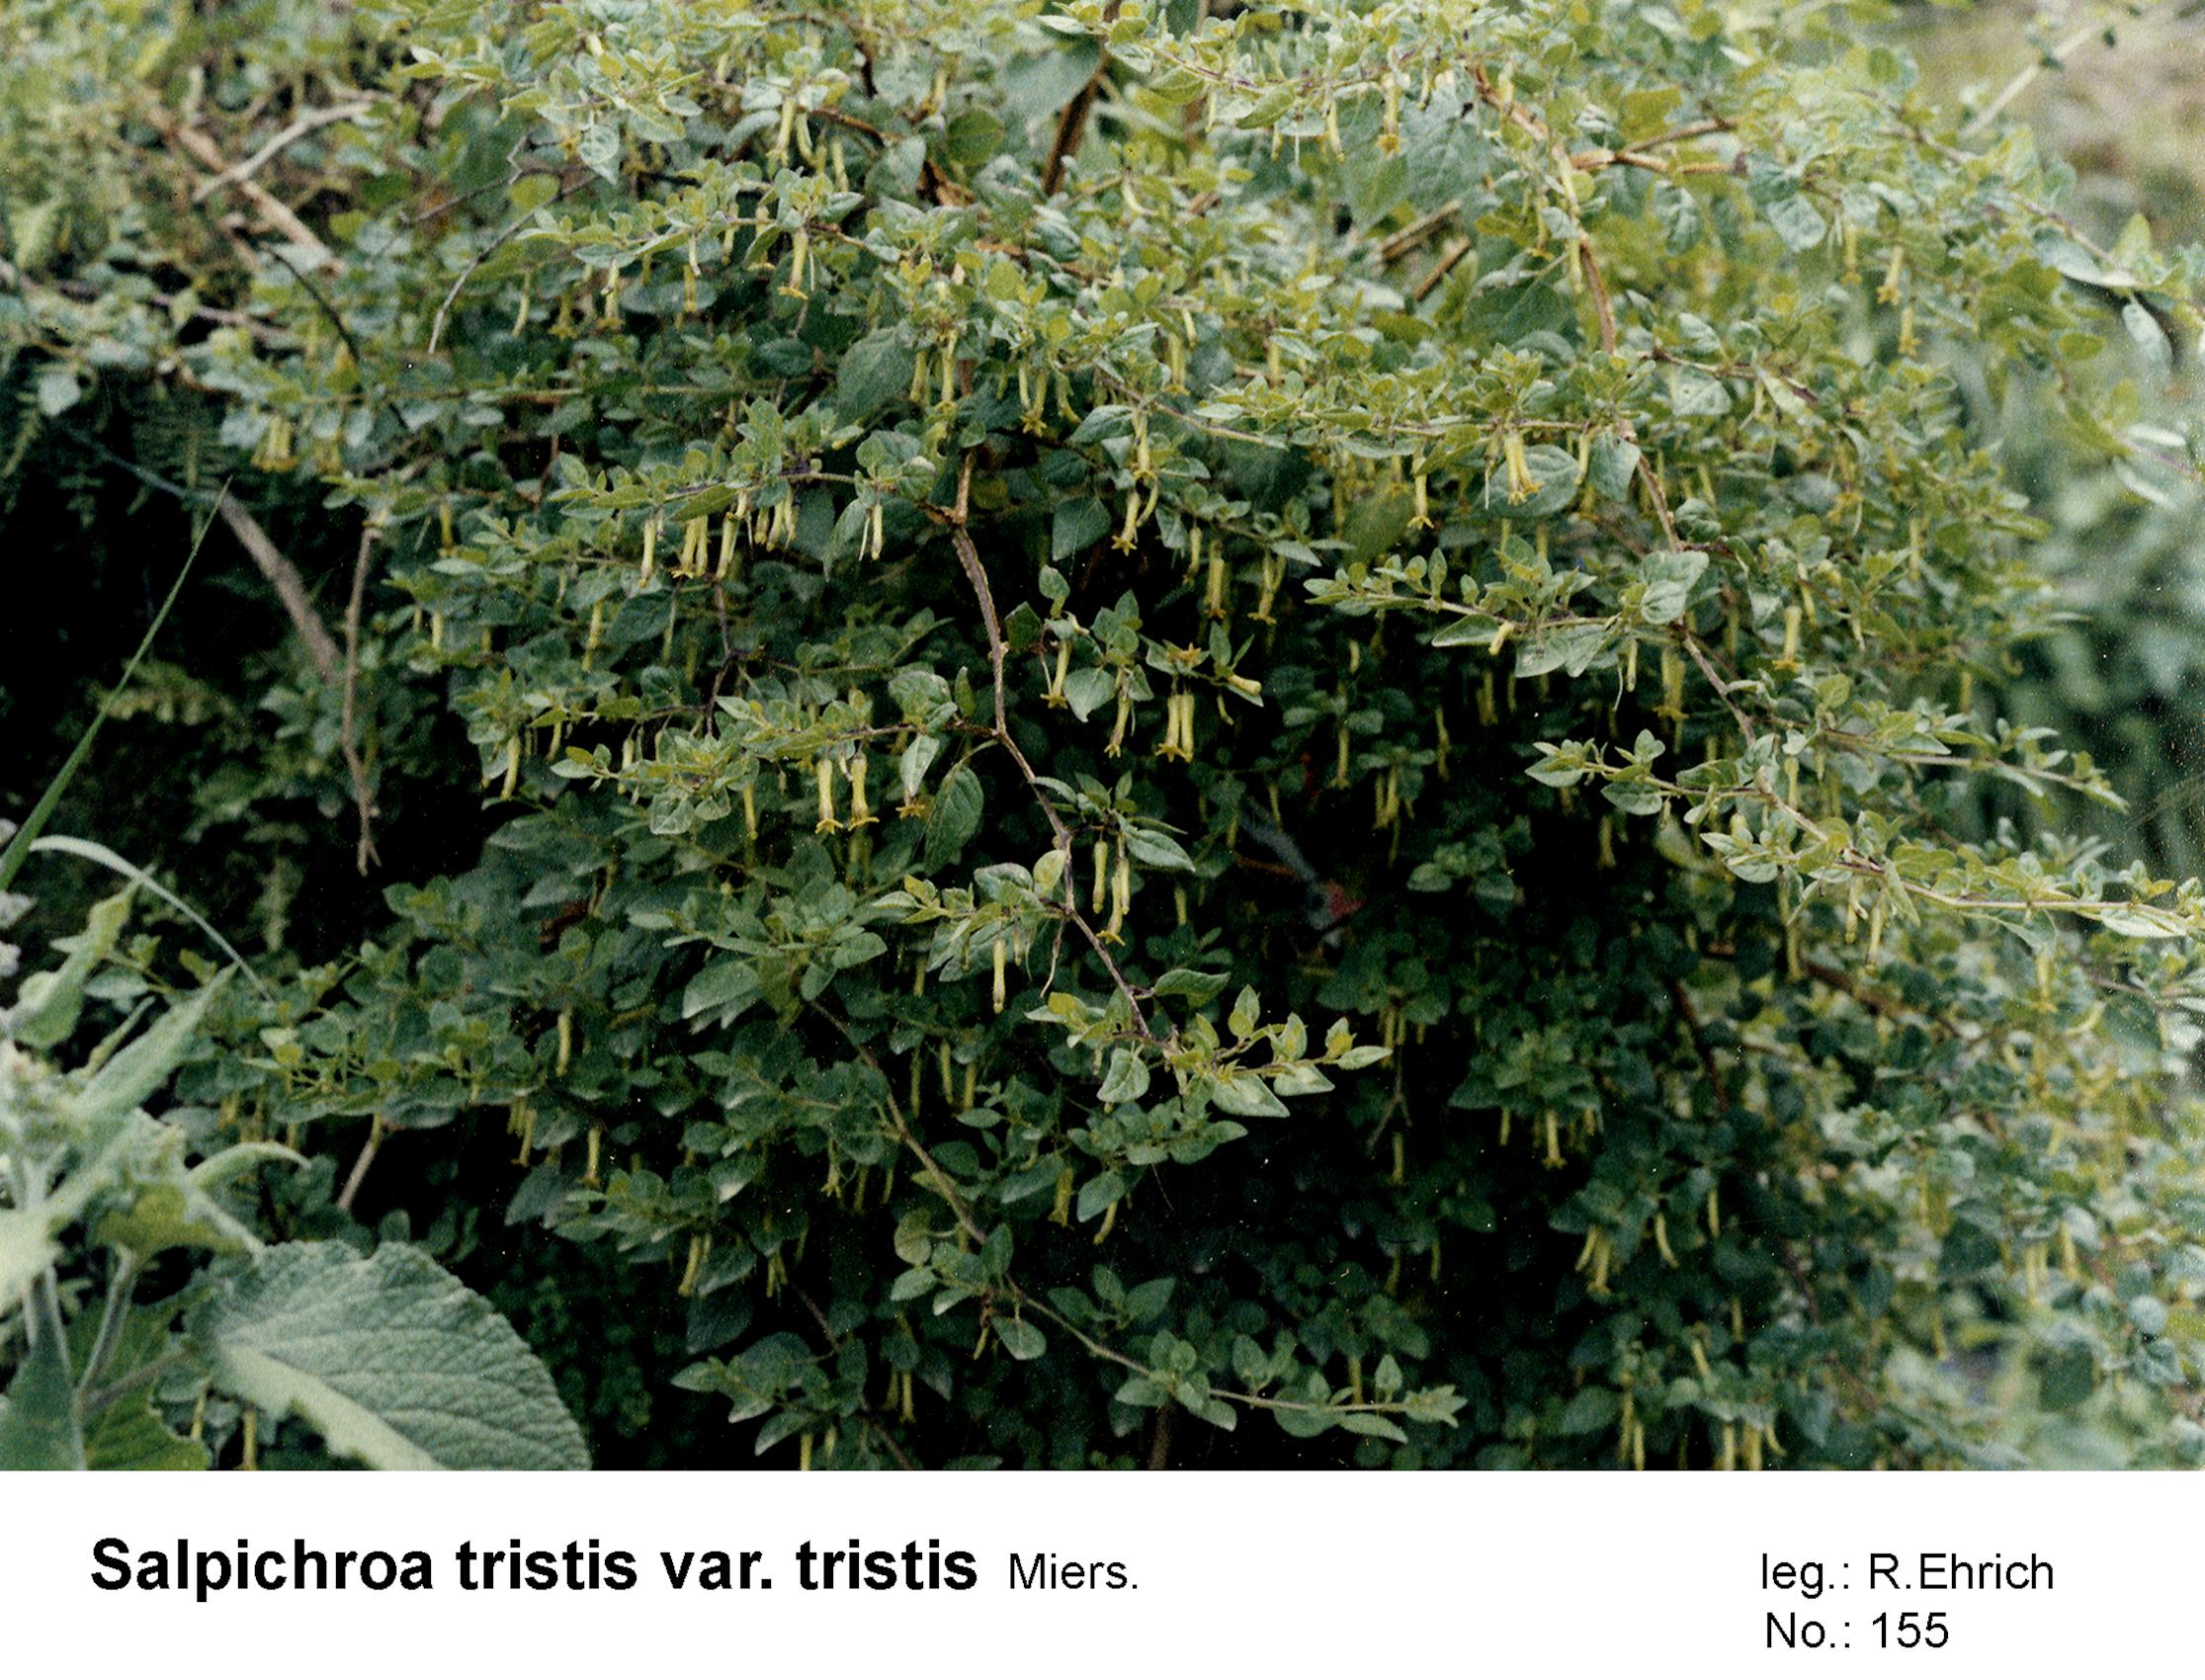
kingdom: Plantae
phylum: Tracheophyta
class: Magnoliopsida
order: Solanales
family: Solanaceae
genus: Salpichroa
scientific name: Salpichroa tristis
